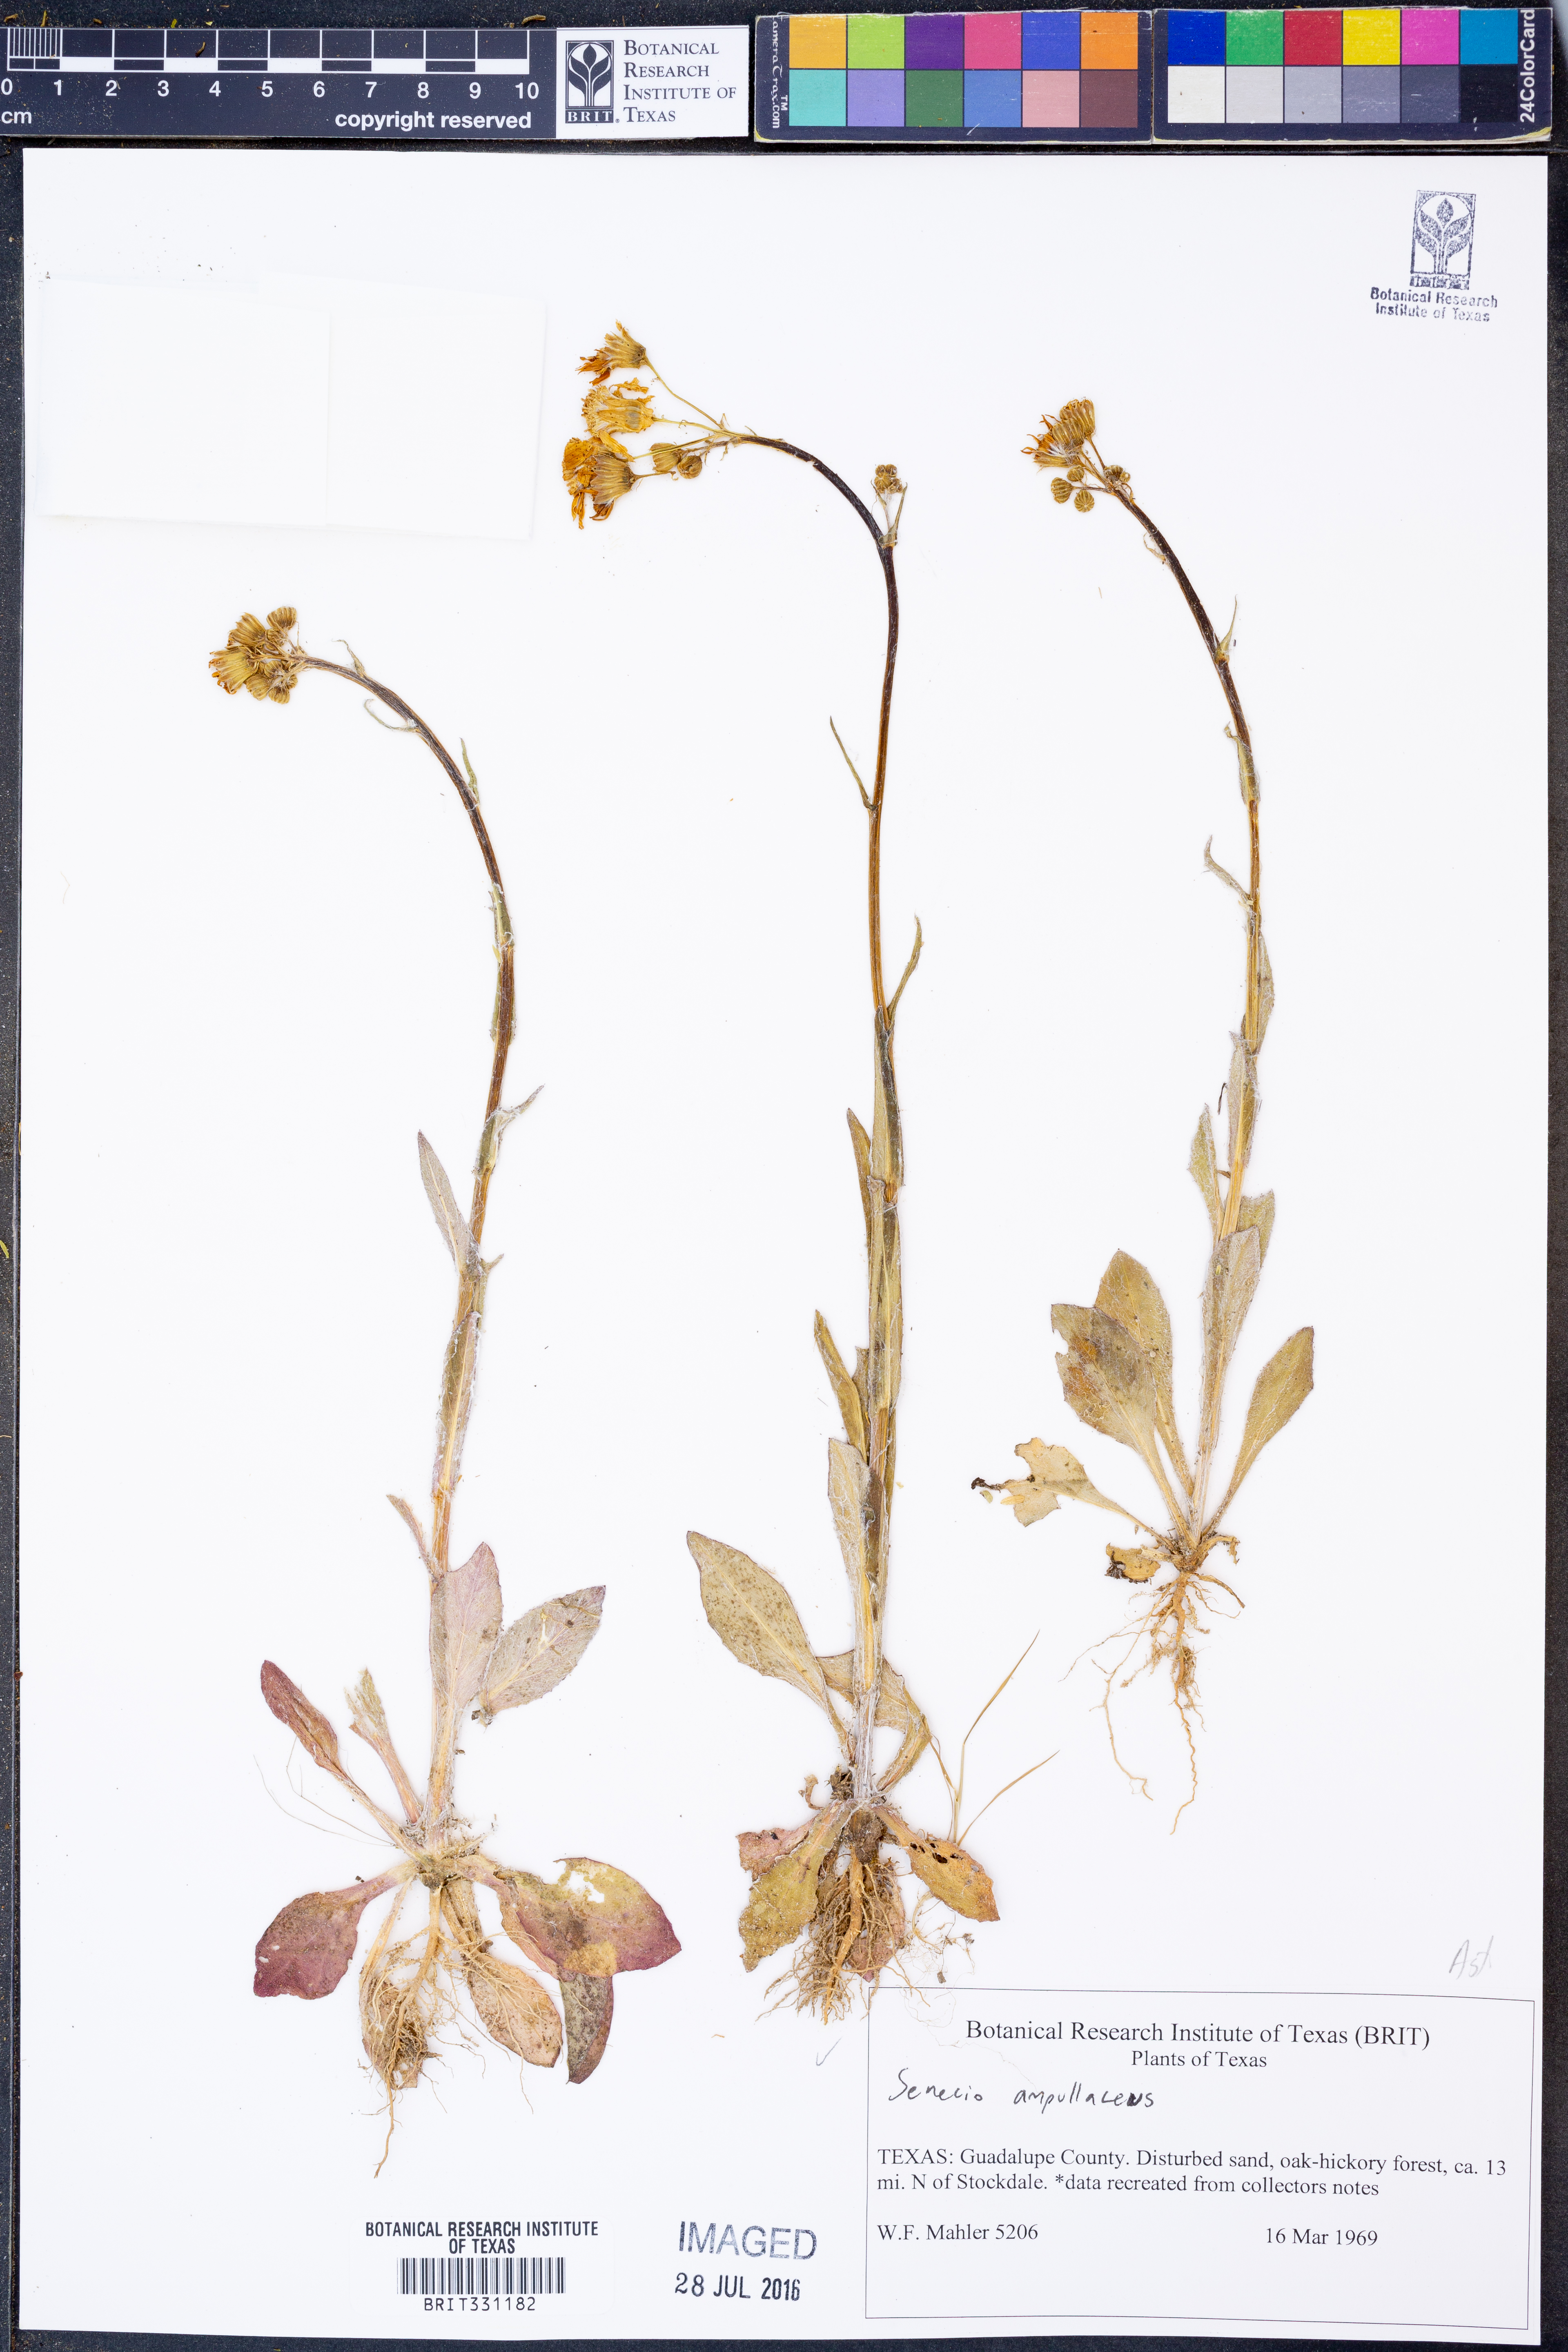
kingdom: Plantae
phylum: Tracheophyta
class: Magnoliopsida
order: Asterales
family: Asteraceae
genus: Senecio
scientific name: Senecio ampullaceus
